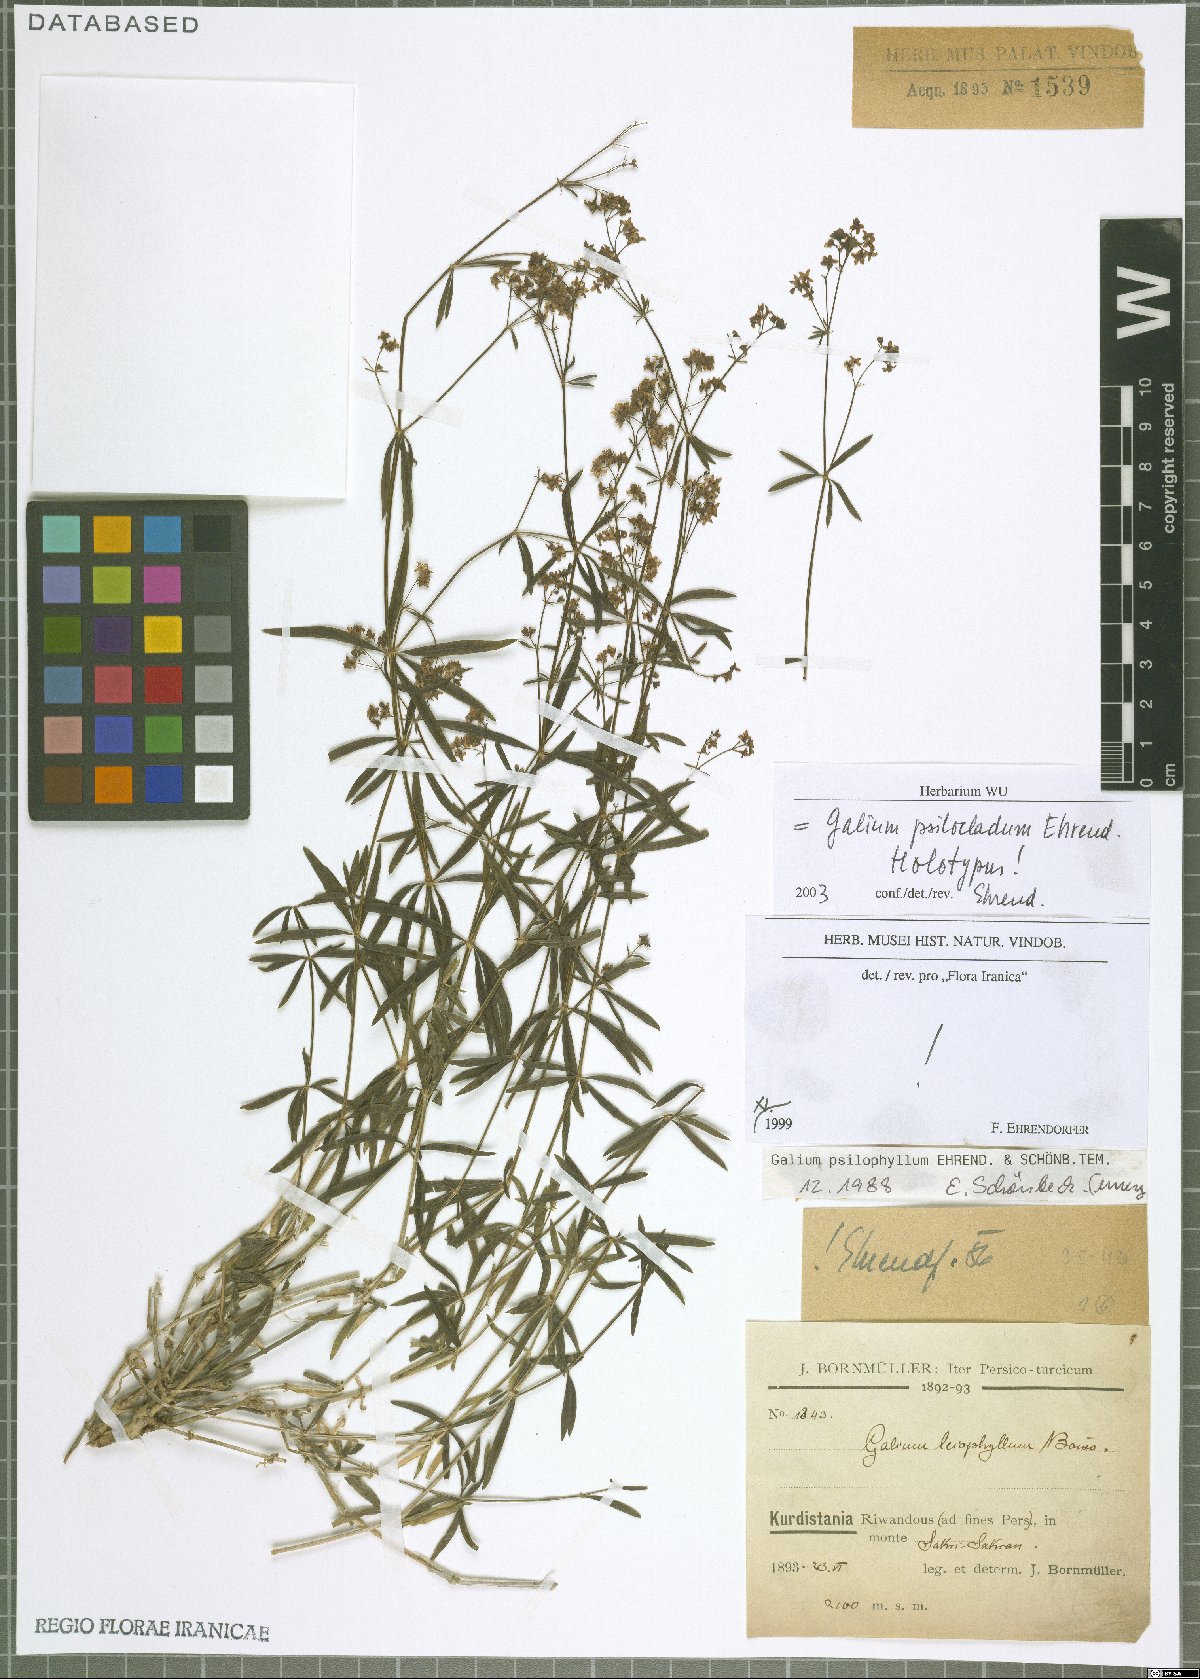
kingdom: Plantae
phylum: Tracheophyta
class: Magnoliopsida
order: Gentianales
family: Rubiaceae
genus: Galium
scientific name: Galium psilocladum
